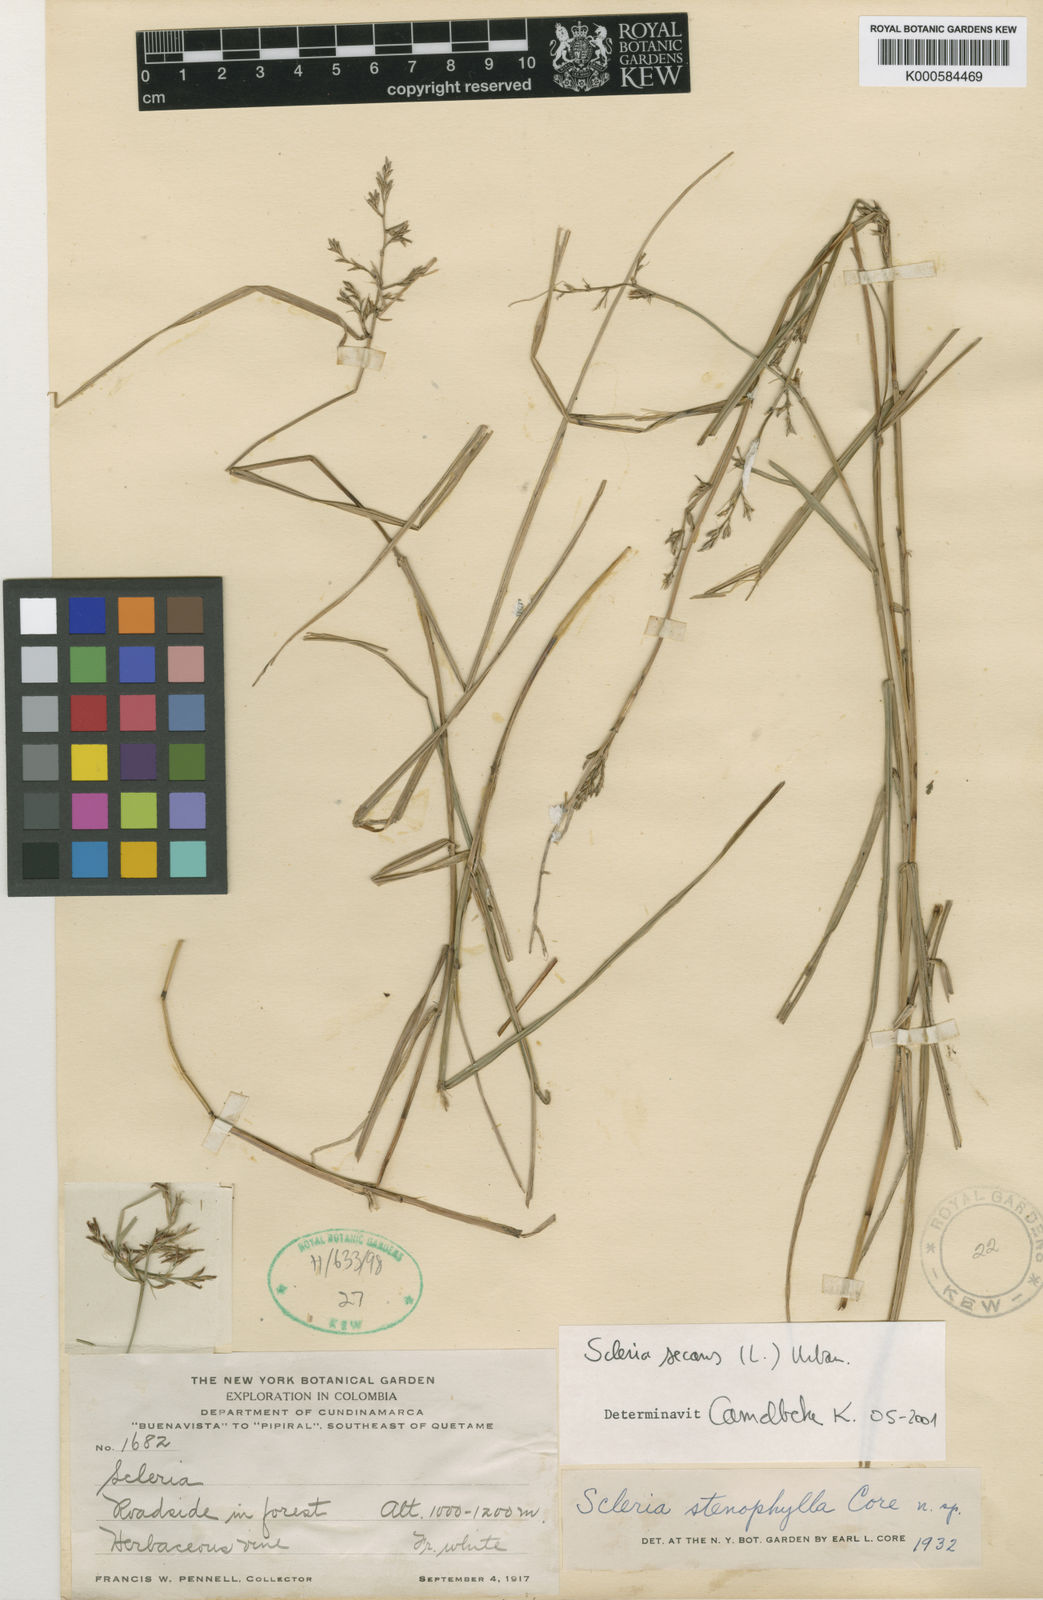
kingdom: Plantae
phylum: Tracheophyta
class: Liliopsida
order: Poales
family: Cyperaceae
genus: Scleria
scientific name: Scleria secans
